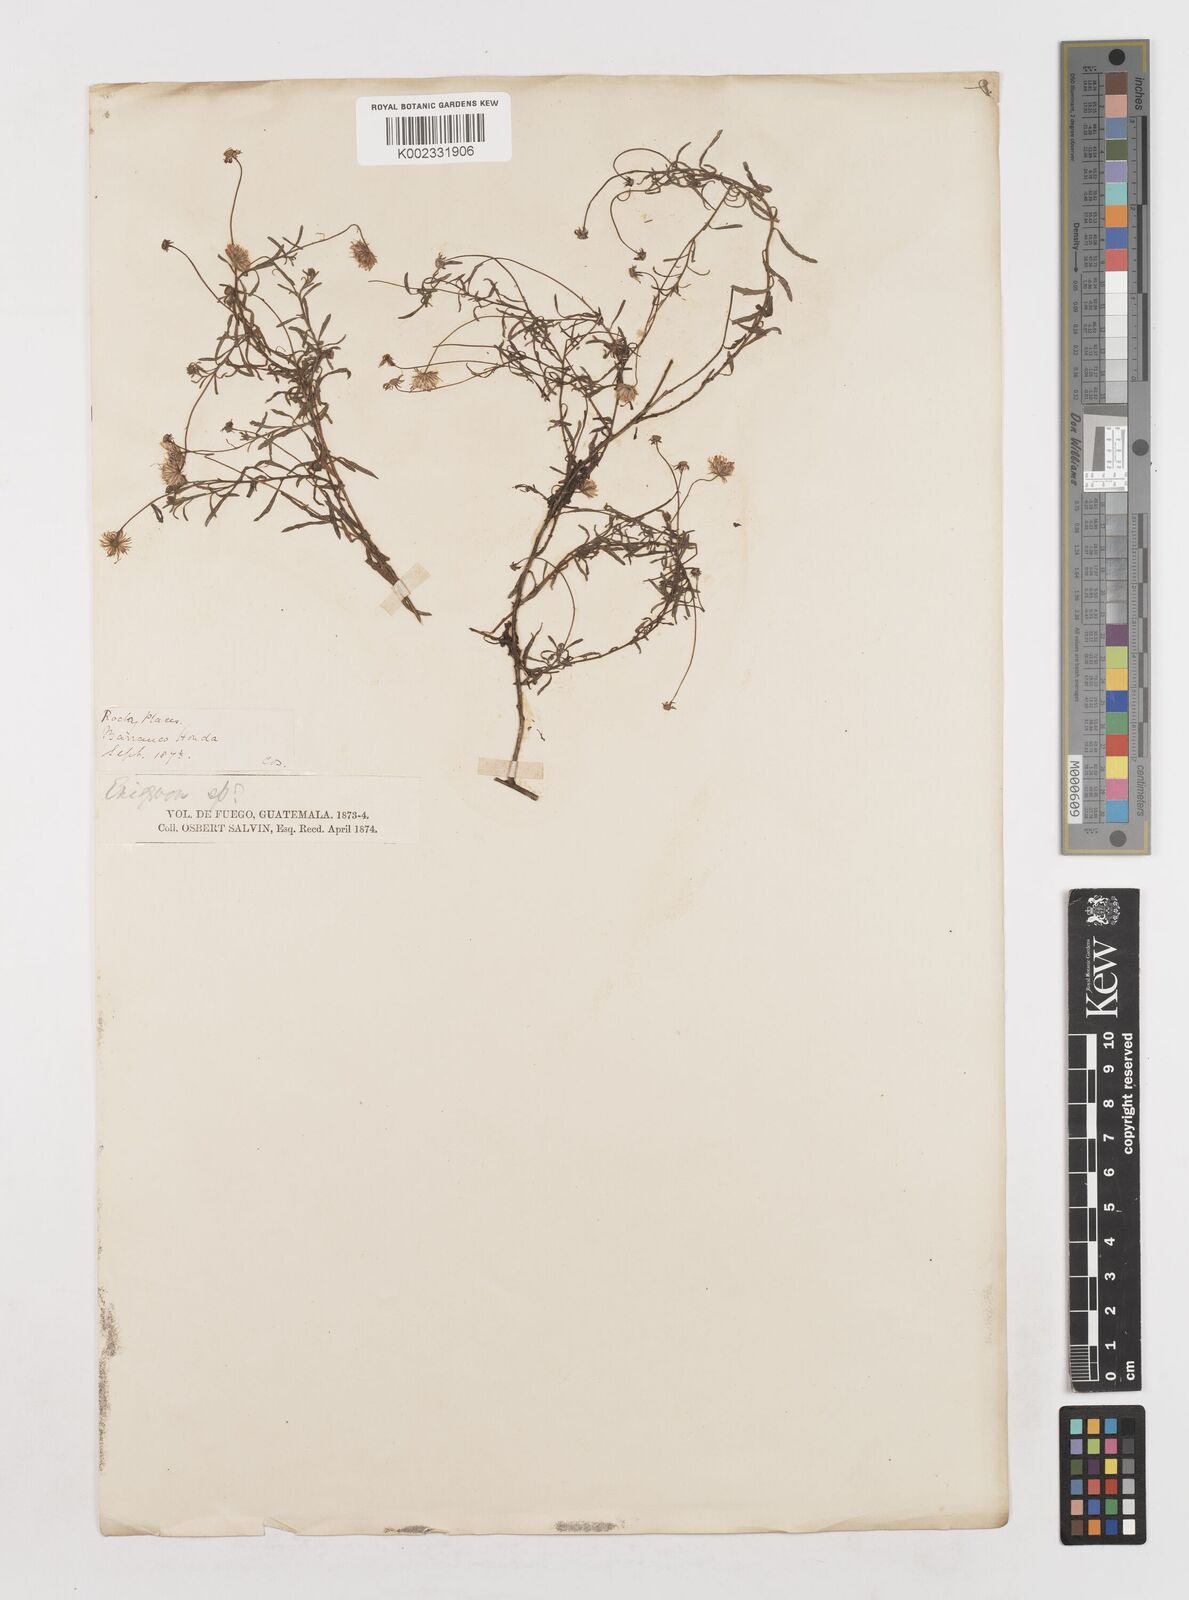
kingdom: Plantae
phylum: Tracheophyta
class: Magnoliopsida
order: Asterales
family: Asteraceae
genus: Erigeron
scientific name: Erigeron
